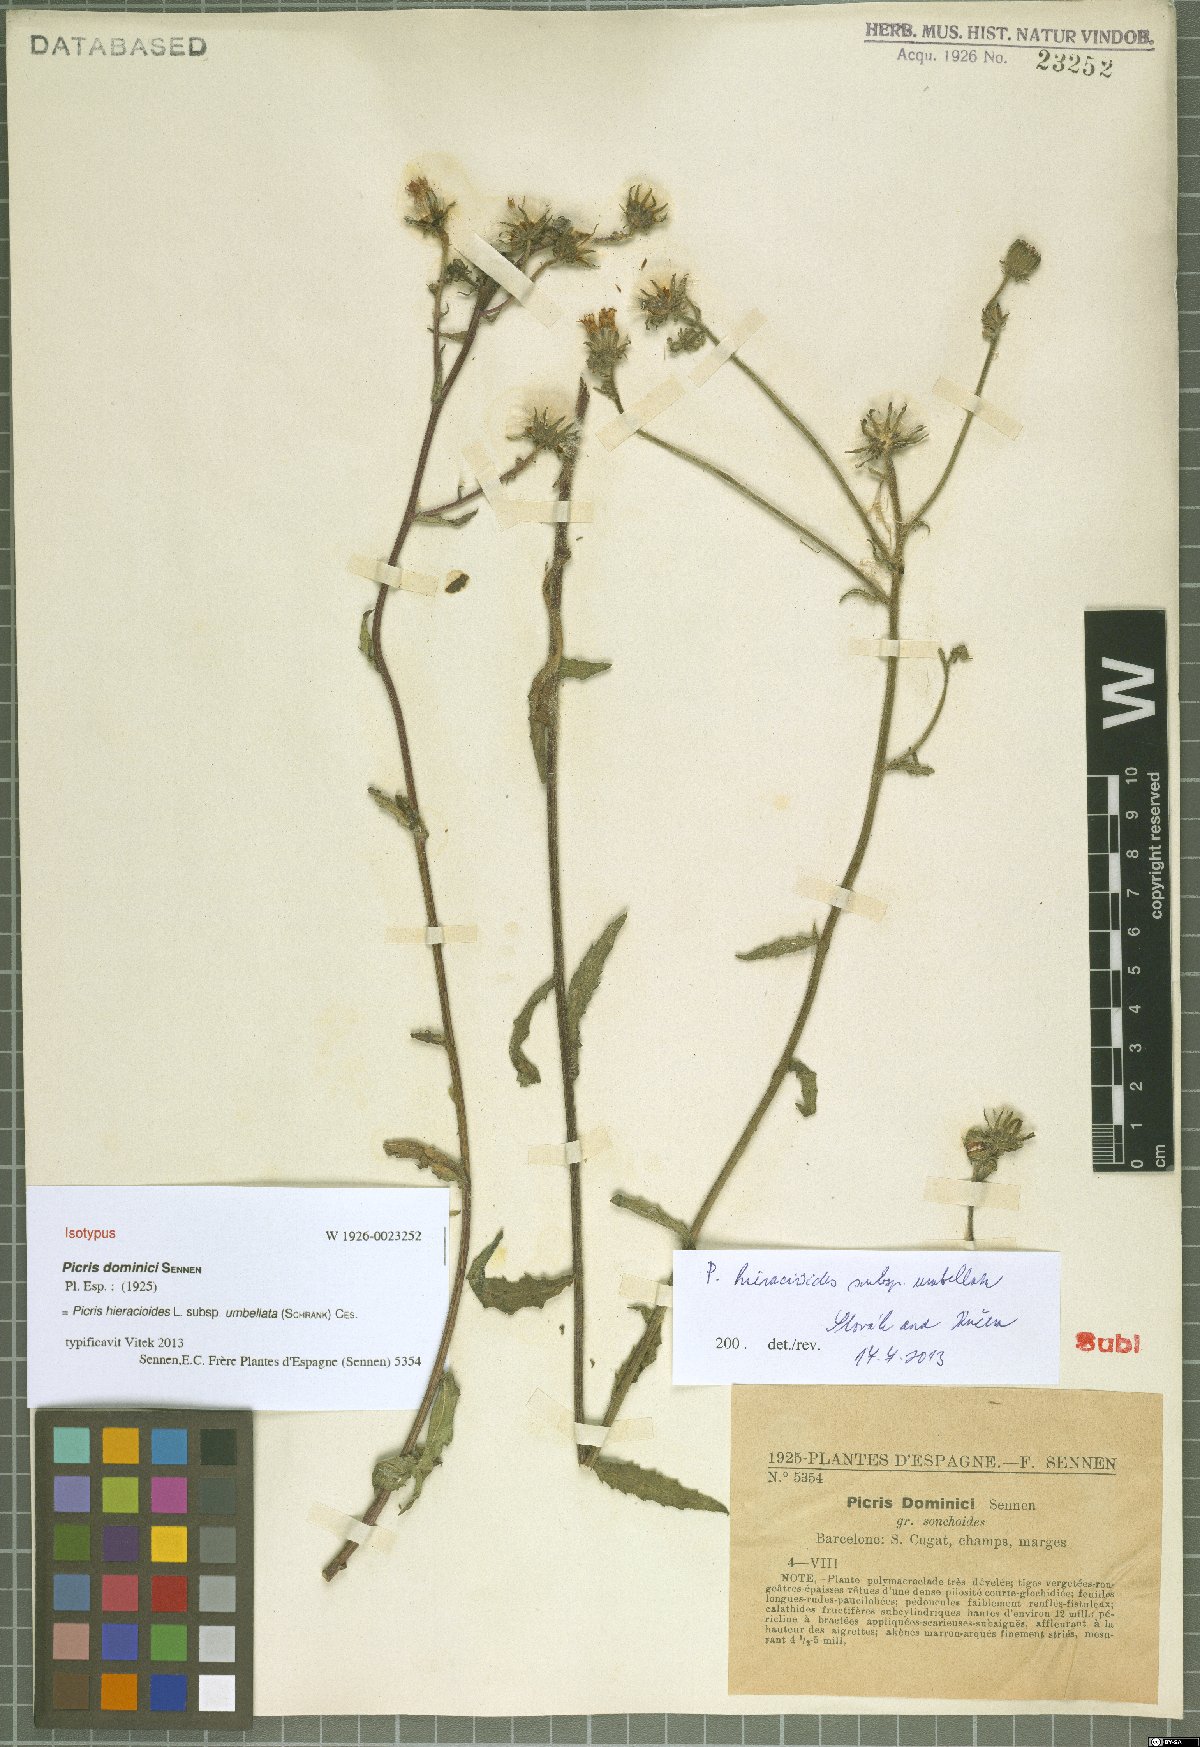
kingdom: Plantae
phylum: Tracheophyta
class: Magnoliopsida
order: Asterales
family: Asteraceae
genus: Picris
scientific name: Picris hieracioides
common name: Hawkweed oxtongue
